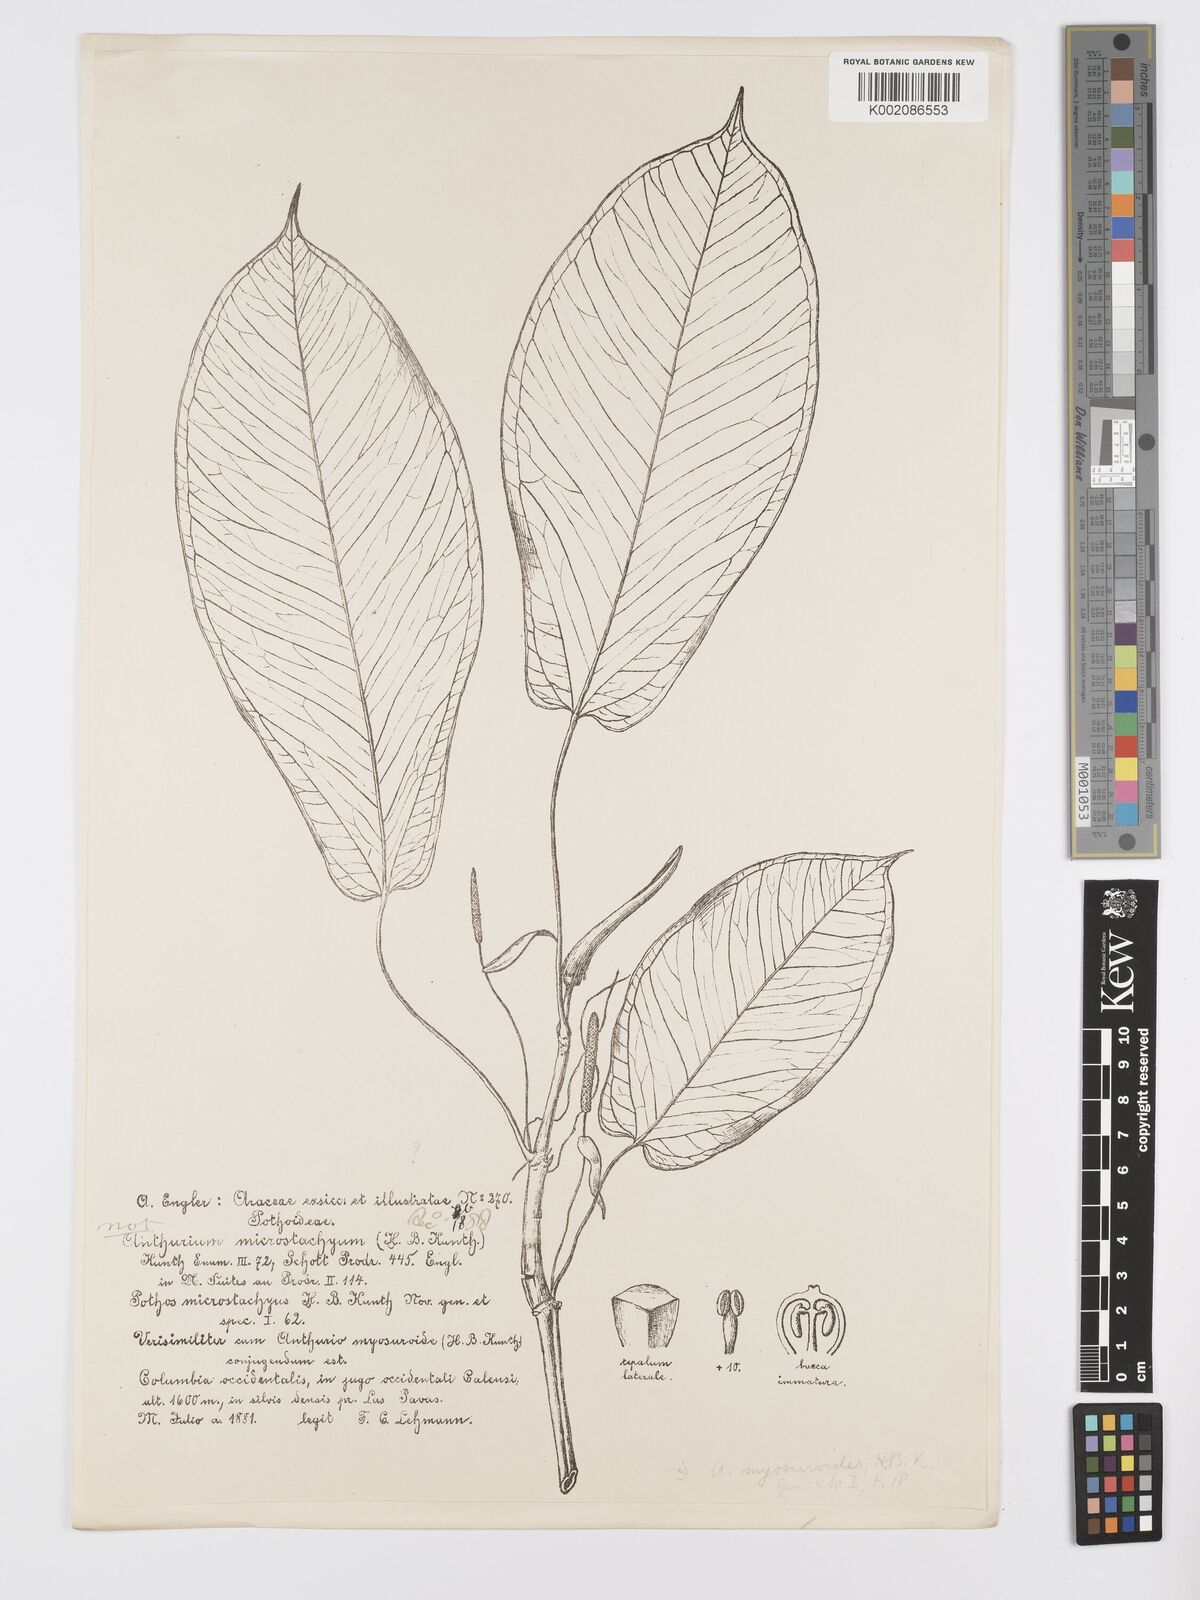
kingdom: Plantae
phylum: Tracheophyta
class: Liliopsida
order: Alismatales
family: Araceae
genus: Anthurium
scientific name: Anthurium myosuroides
